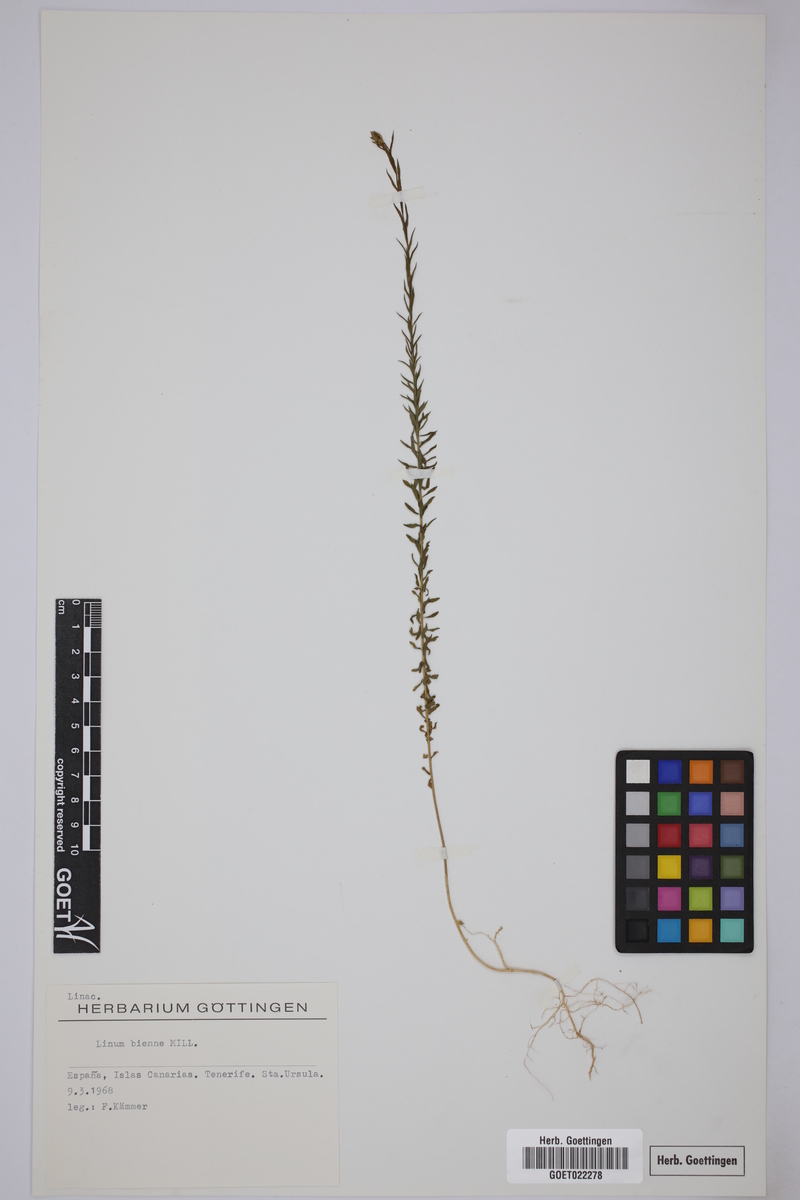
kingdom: Plantae
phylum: Tracheophyta
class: Magnoliopsida
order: Malpighiales
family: Linaceae
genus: Linum
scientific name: Linum bienne
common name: Pale flax
